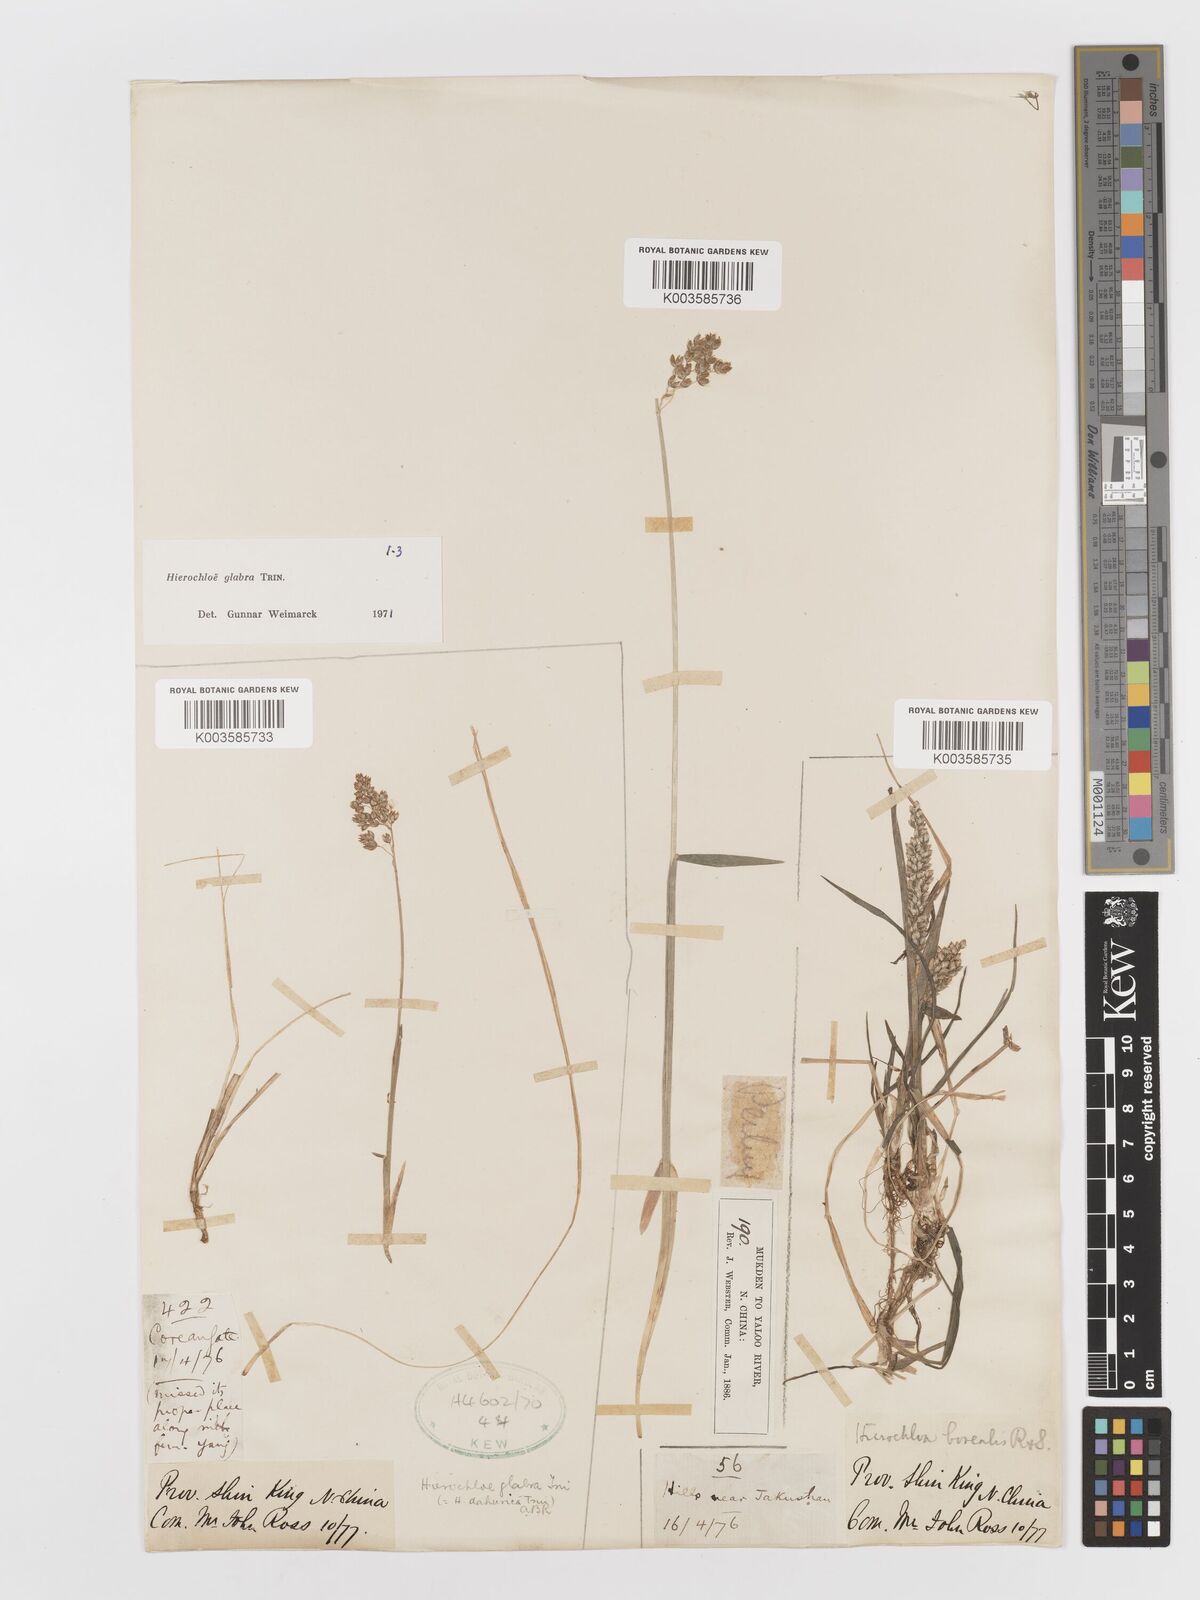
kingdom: Plantae
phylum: Tracheophyta
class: Liliopsida
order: Poales
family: Poaceae
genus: Anthoxanthum
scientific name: Anthoxanthum glabrum
